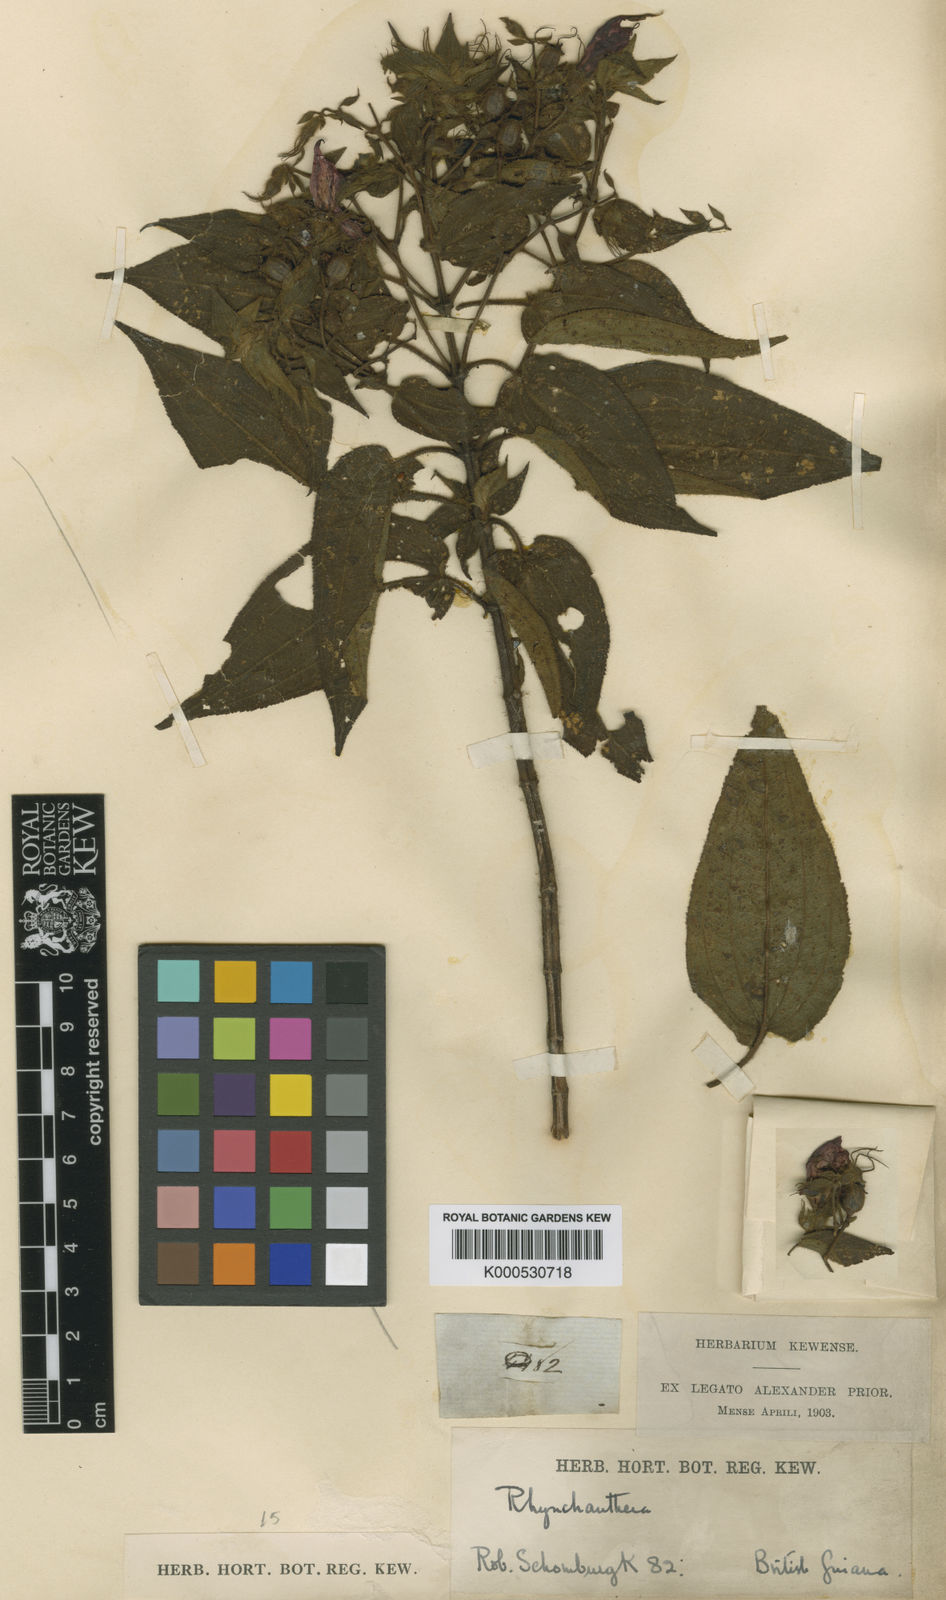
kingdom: Plantae
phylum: Tracheophyta
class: Magnoliopsida
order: Myrtales
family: Melastomataceae
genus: Rhynchanthera
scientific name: Rhynchanthera grandiflora
